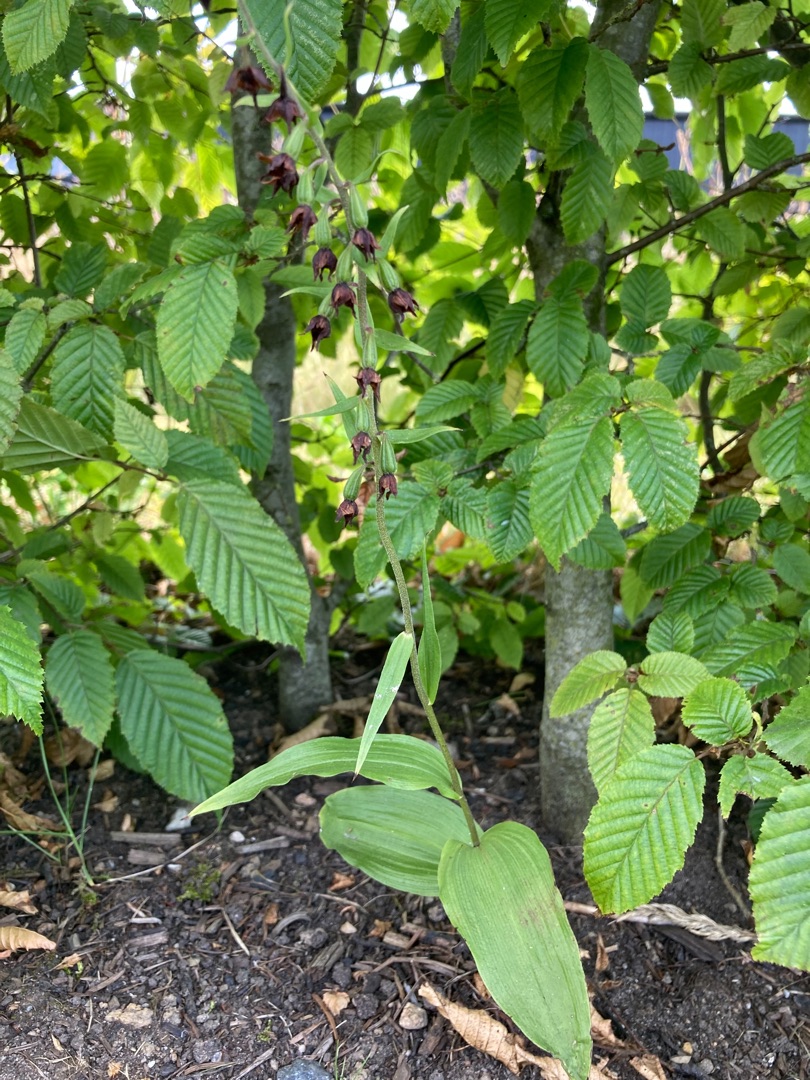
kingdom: Plantae
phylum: Tracheophyta
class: Liliopsida
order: Asparagales
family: Orchidaceae
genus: Epipactis
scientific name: Epipactis helleborine
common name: Skov-hullæbe
